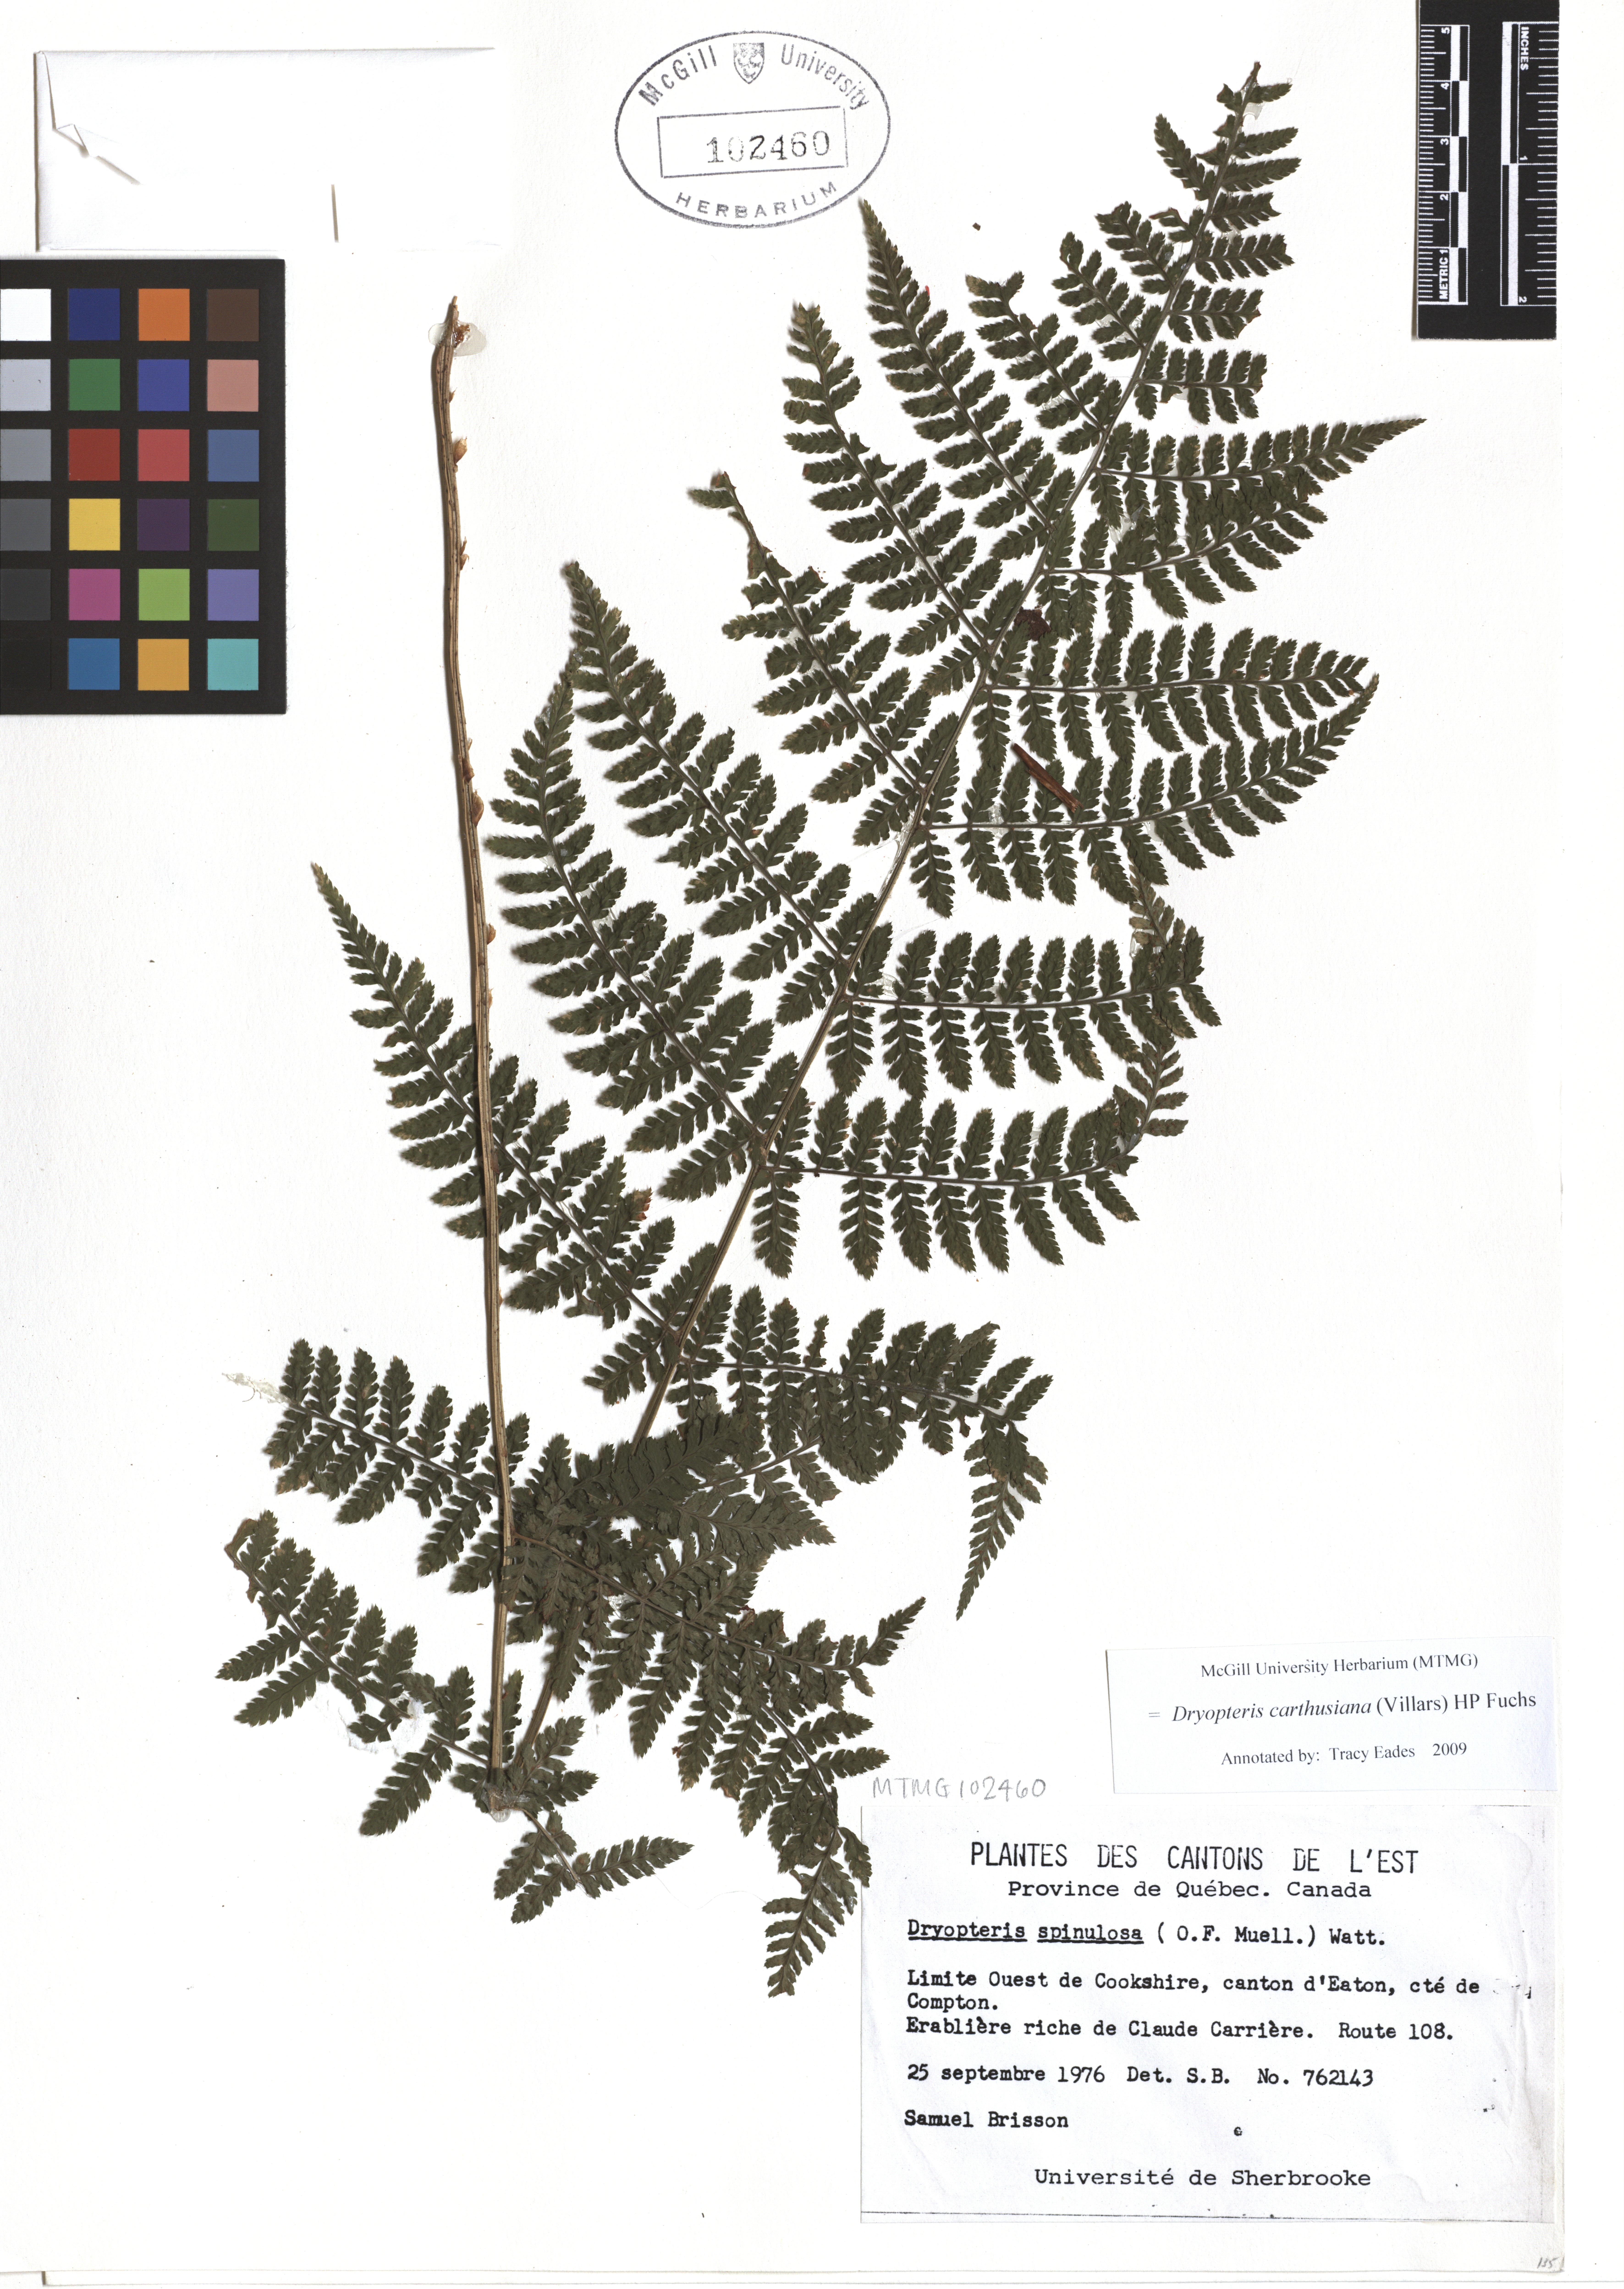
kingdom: Plantae
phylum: Tracheophyta
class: Polypodiopsida
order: Polypodiales
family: Dryopteridaceae
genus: Dryopteris
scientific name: Dryopteris carthusiana
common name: Narrow buckler-fern
